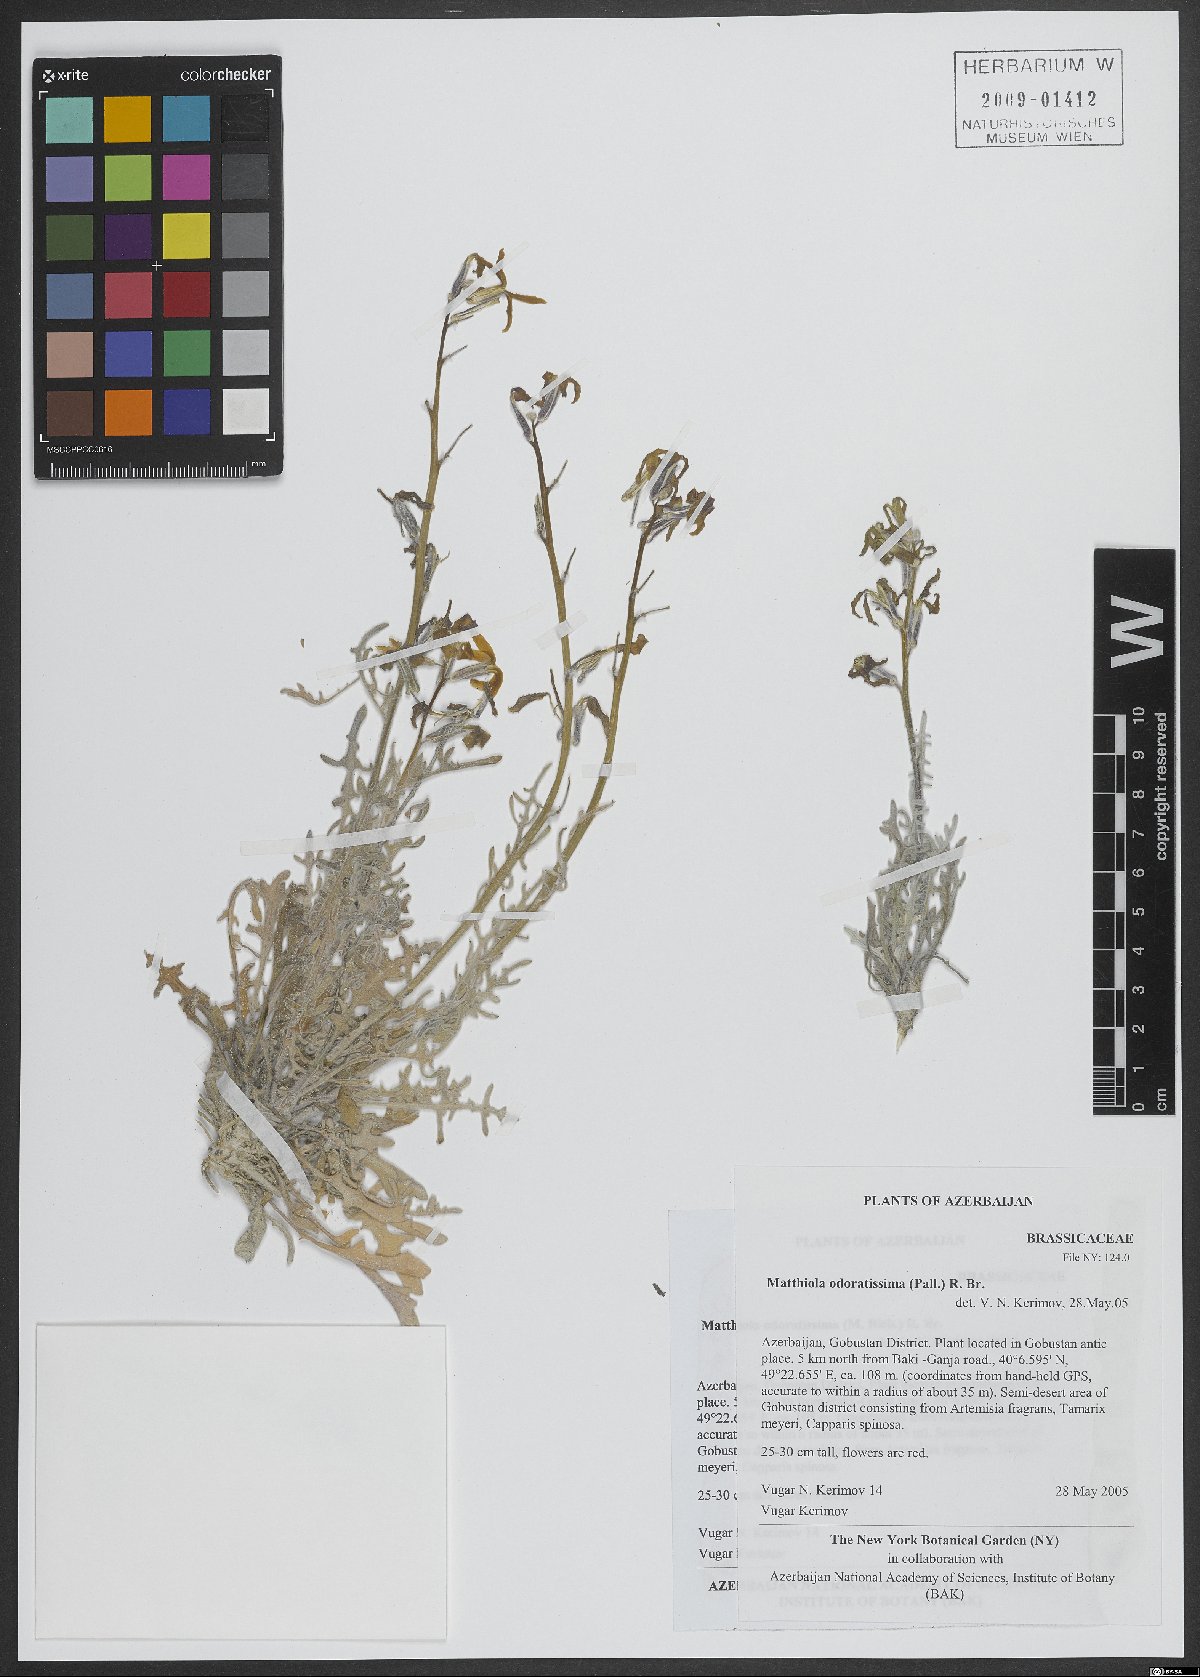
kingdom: Plantae
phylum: Tracheophyta
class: Magnoliopsida
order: Brassicales
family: Brassicaceae
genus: Matthiola
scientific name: Matthiola odoratissima
